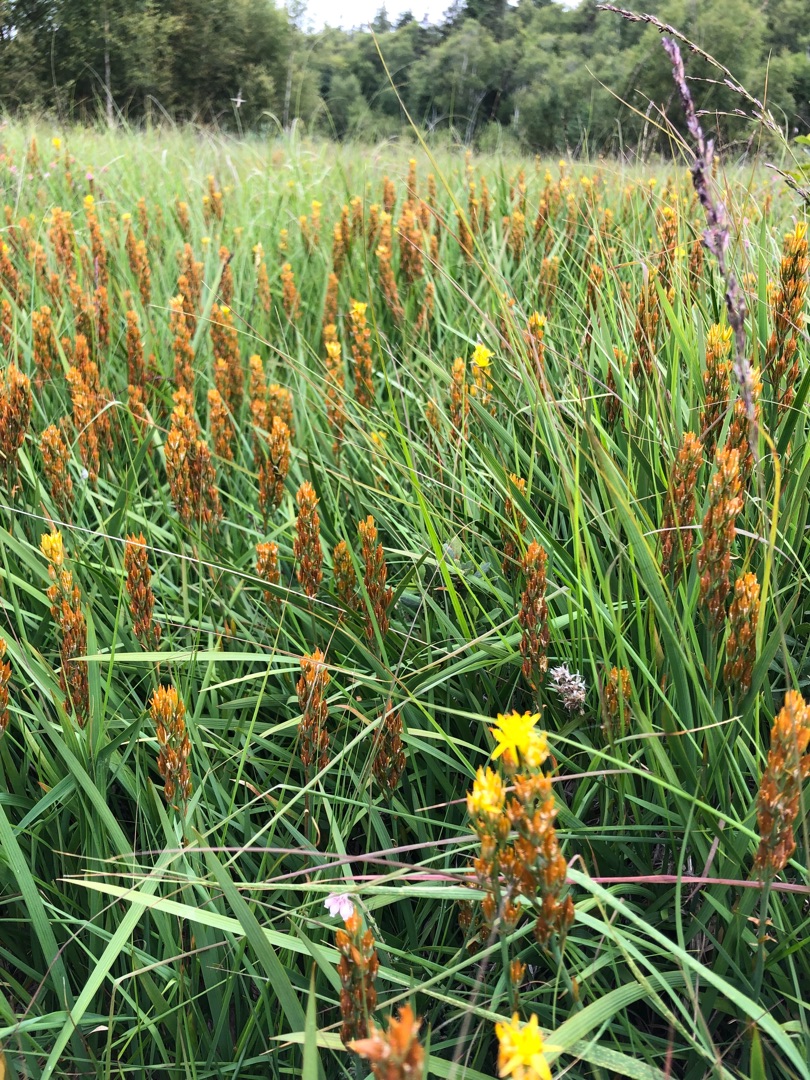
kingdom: Plantae
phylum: Tracheophyta
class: Liliopsida
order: Dioscoreales
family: Nartheciaceae
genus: Narthecium
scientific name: Narthecium ossifragum
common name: Benbræk
